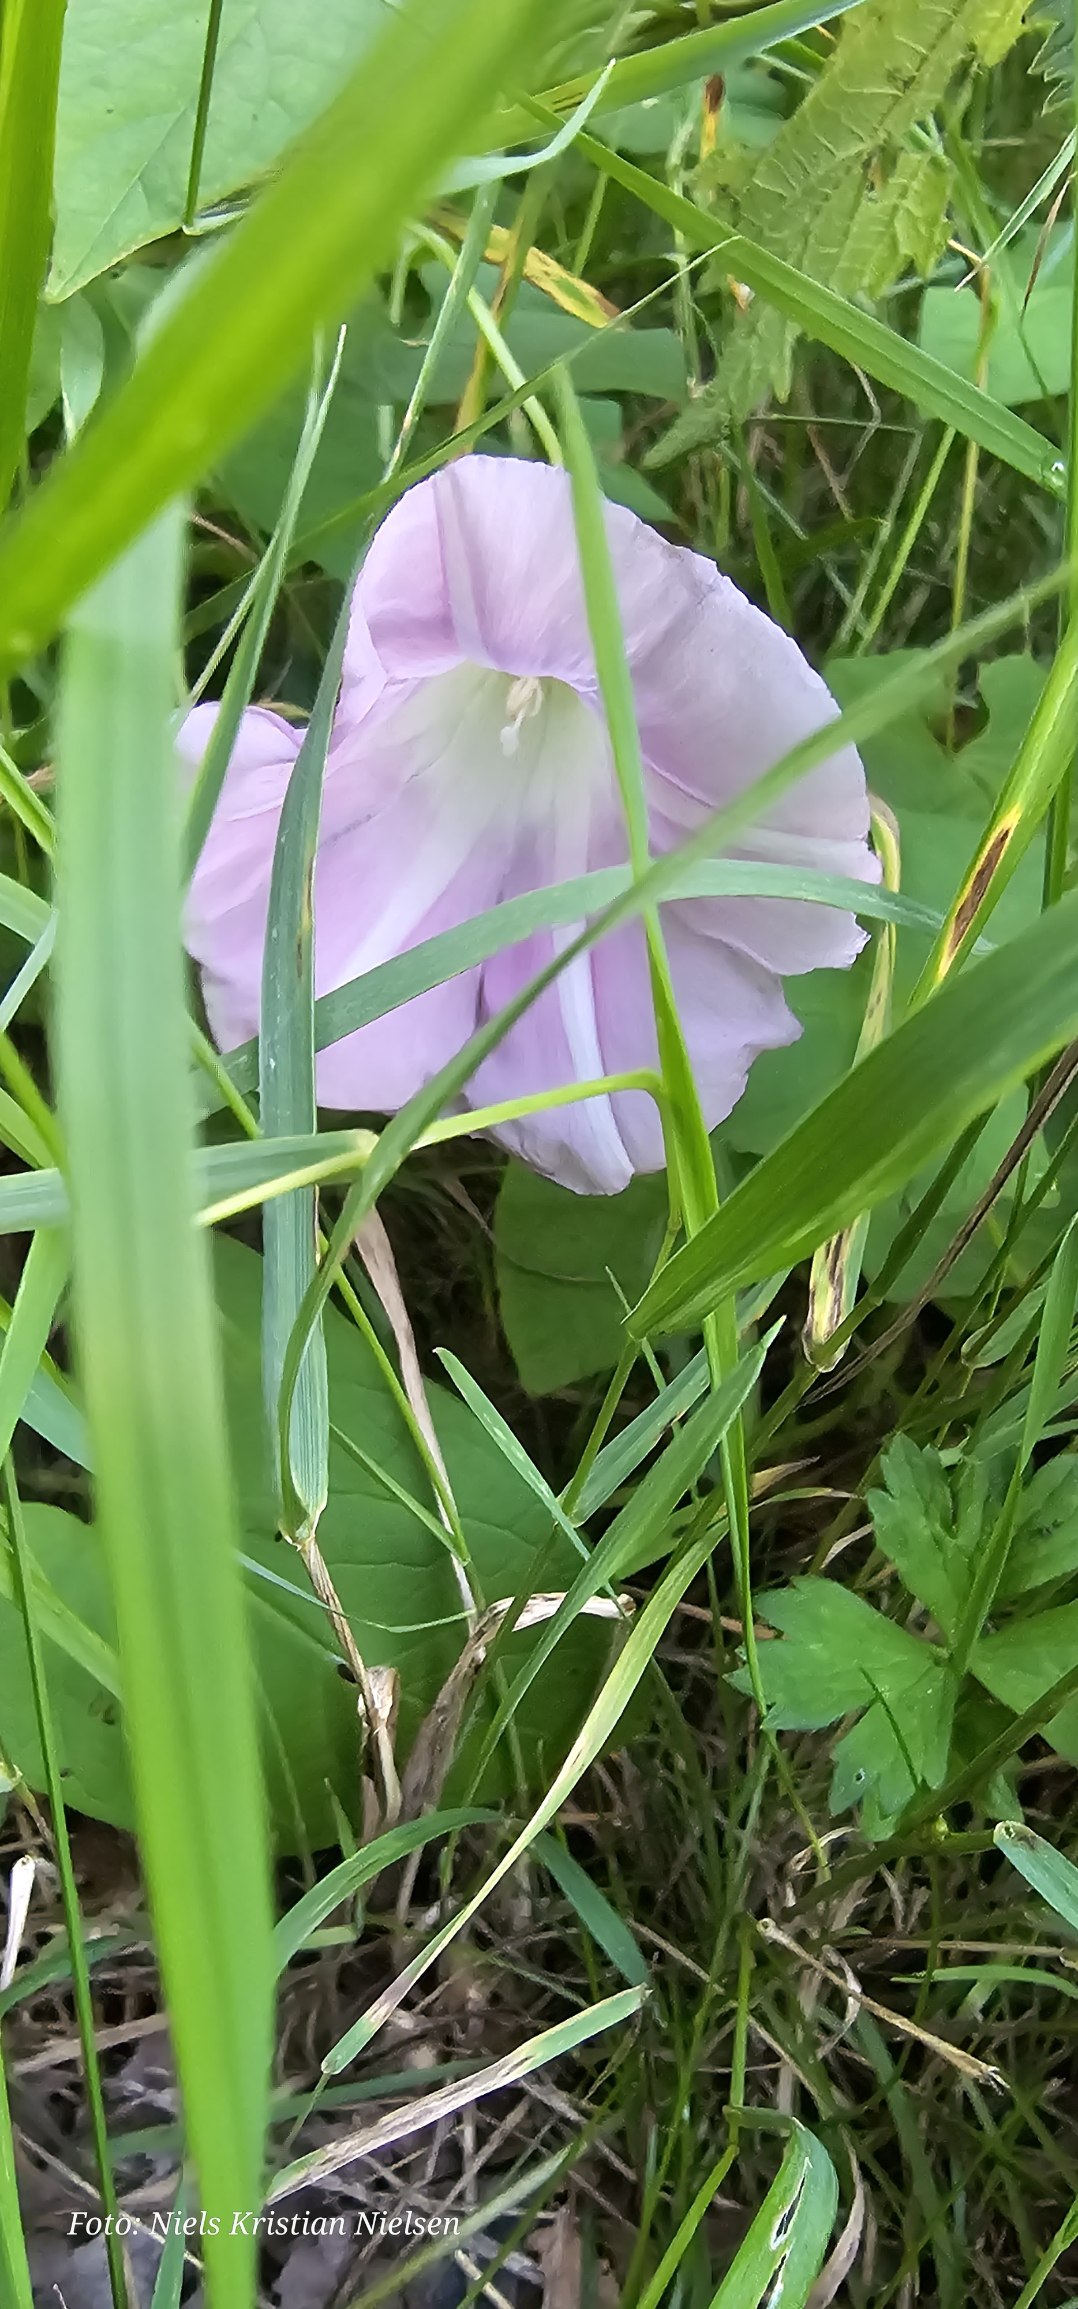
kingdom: Plantae
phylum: Tracheophyta
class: Magnoliopsida
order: Solanales
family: Convolvulaceae
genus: Calystegia
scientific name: Calystegia pulchra
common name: Have-snerle
